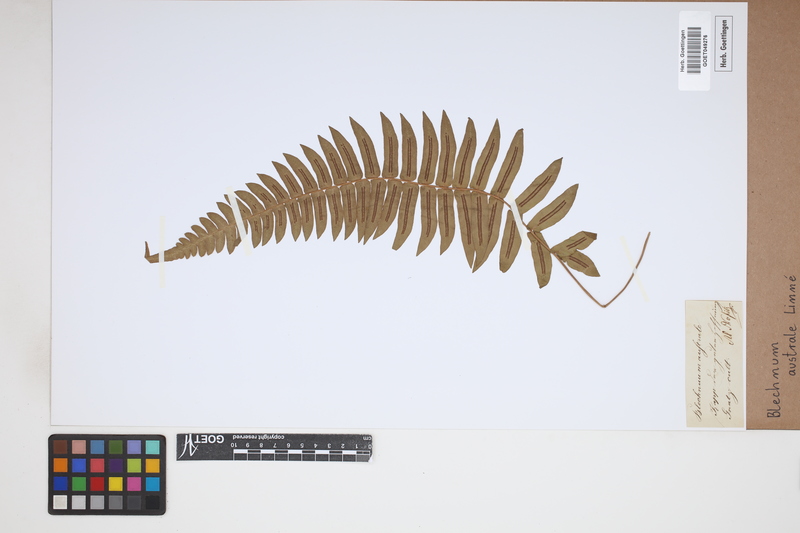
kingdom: Plantae
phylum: Tracheophyta
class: Polypodiopsida
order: Polypodiales
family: Blechnaceae
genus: Blechnum
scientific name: Blechnum australe
